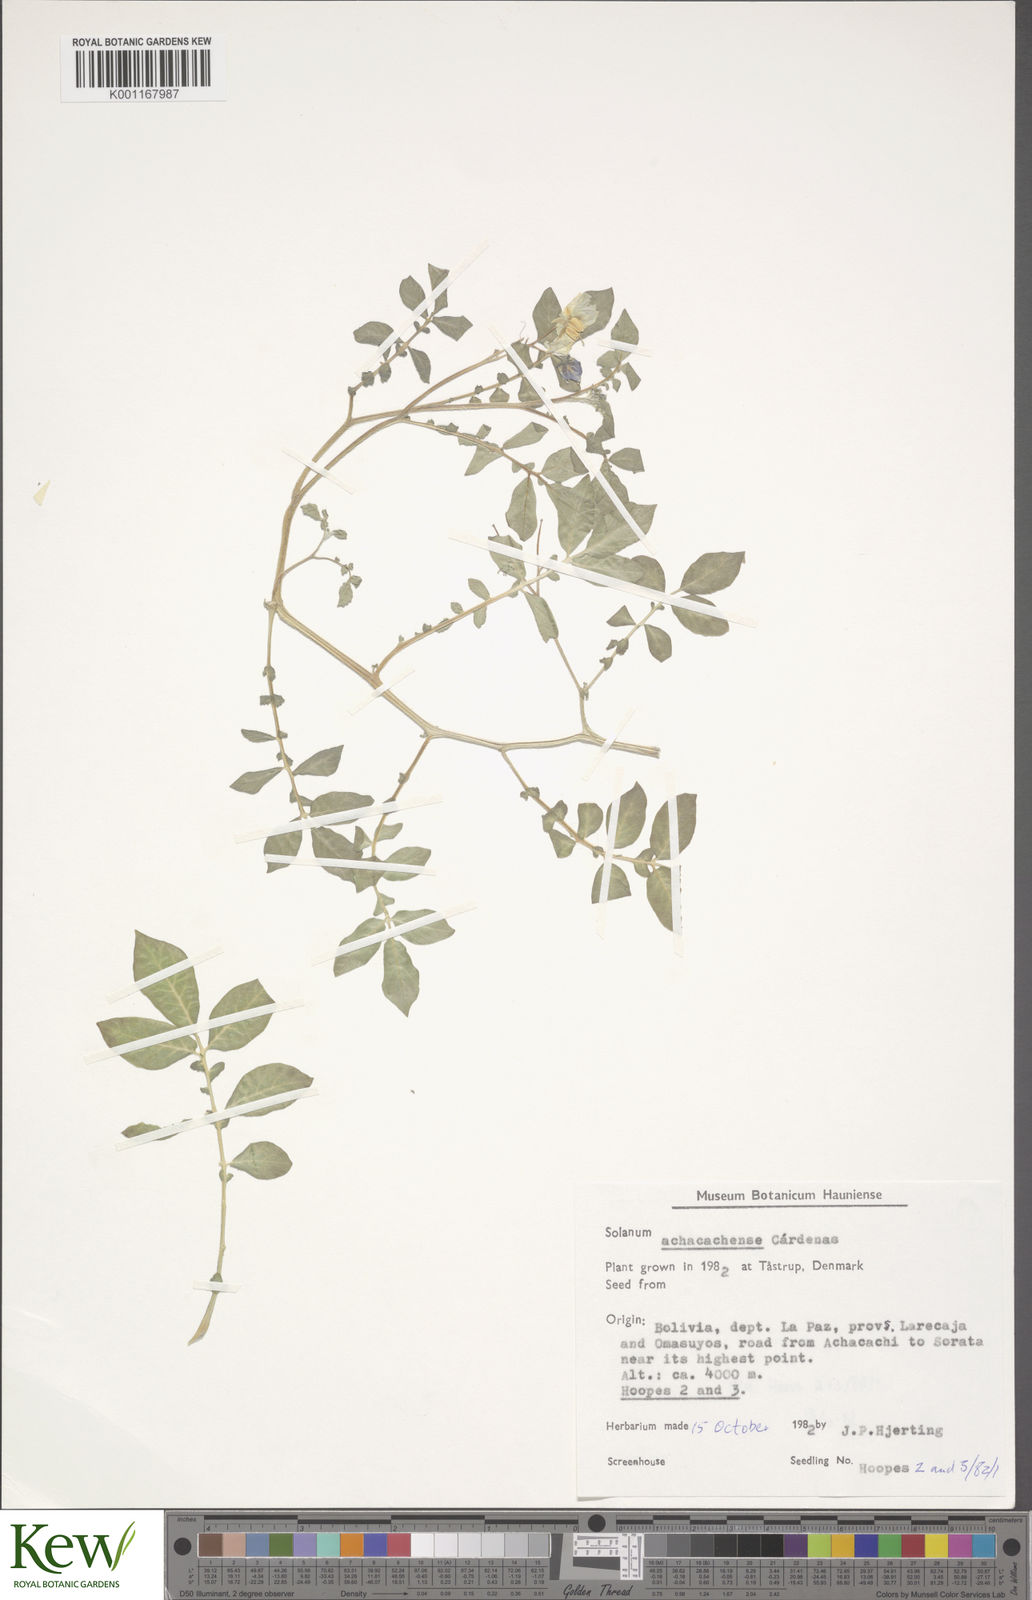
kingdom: Plantae
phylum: Tracheophyta
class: Magnoliopsida
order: Solanales
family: Solanaceae
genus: Solanum
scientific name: Solanum
